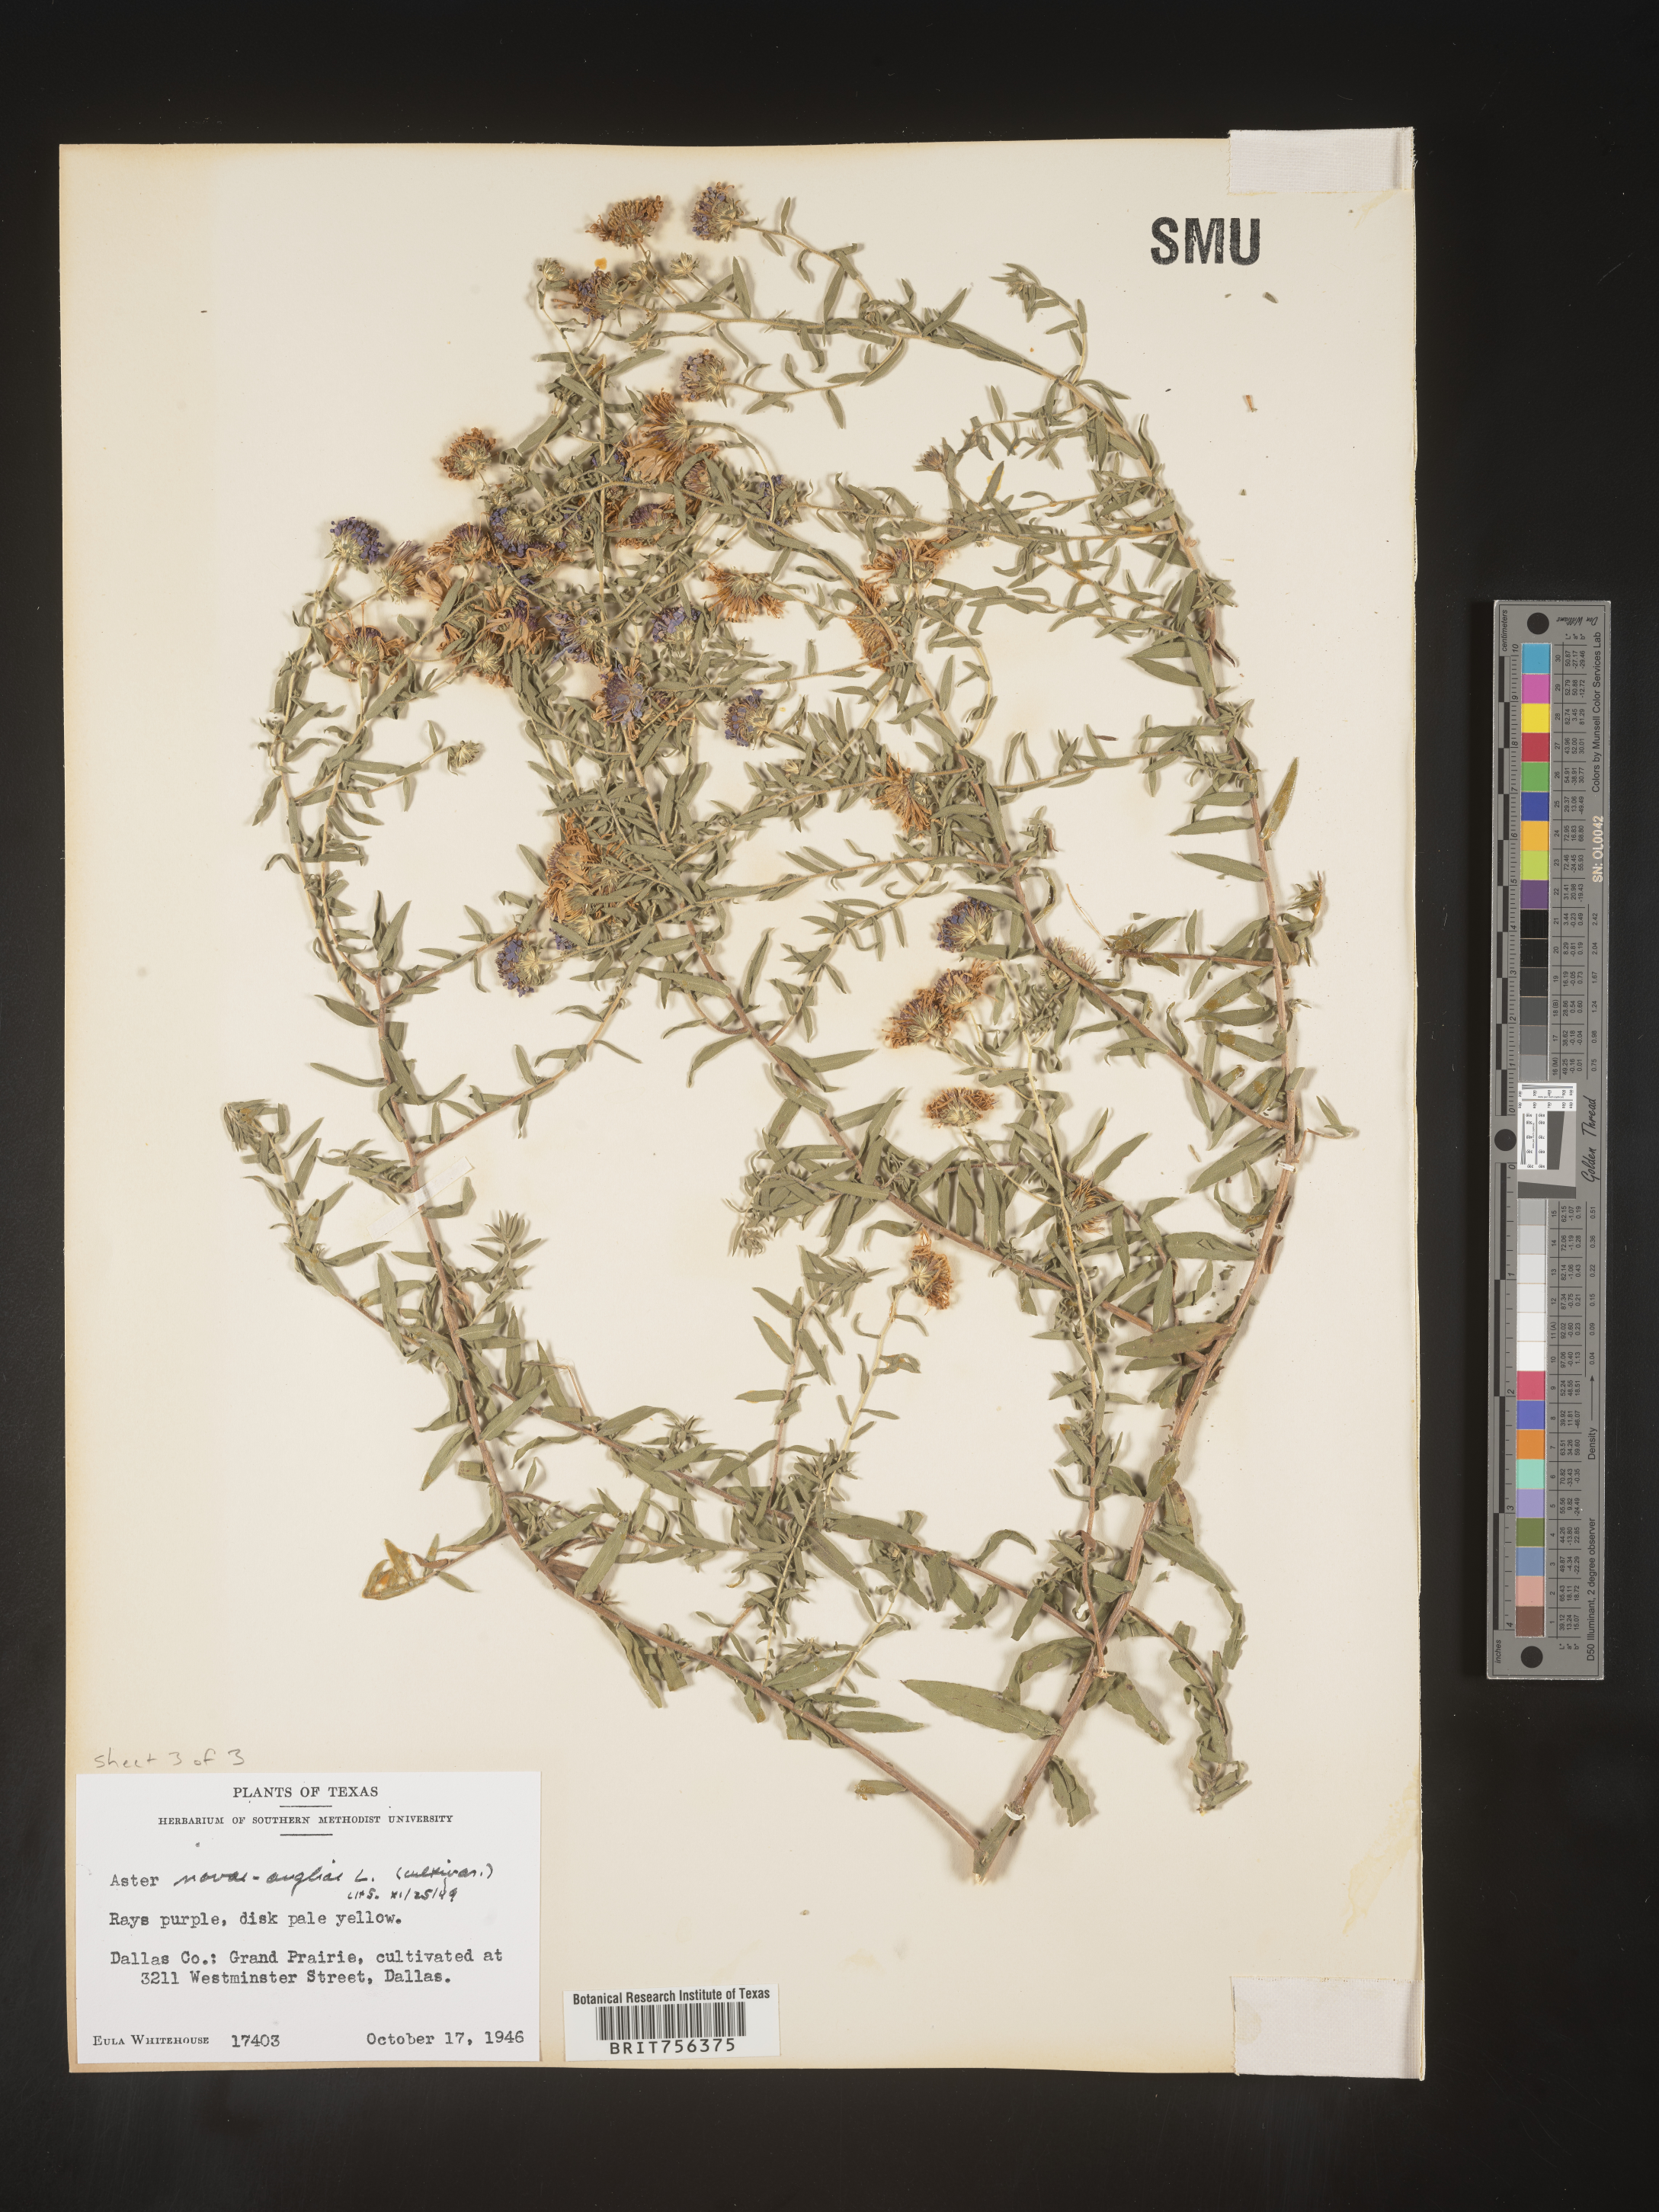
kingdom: Plantae
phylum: Tracheophyta
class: Magnoliopsida
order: Asterales
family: Asteraceae
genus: Symphyotrichum
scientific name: Symphyotrichum
